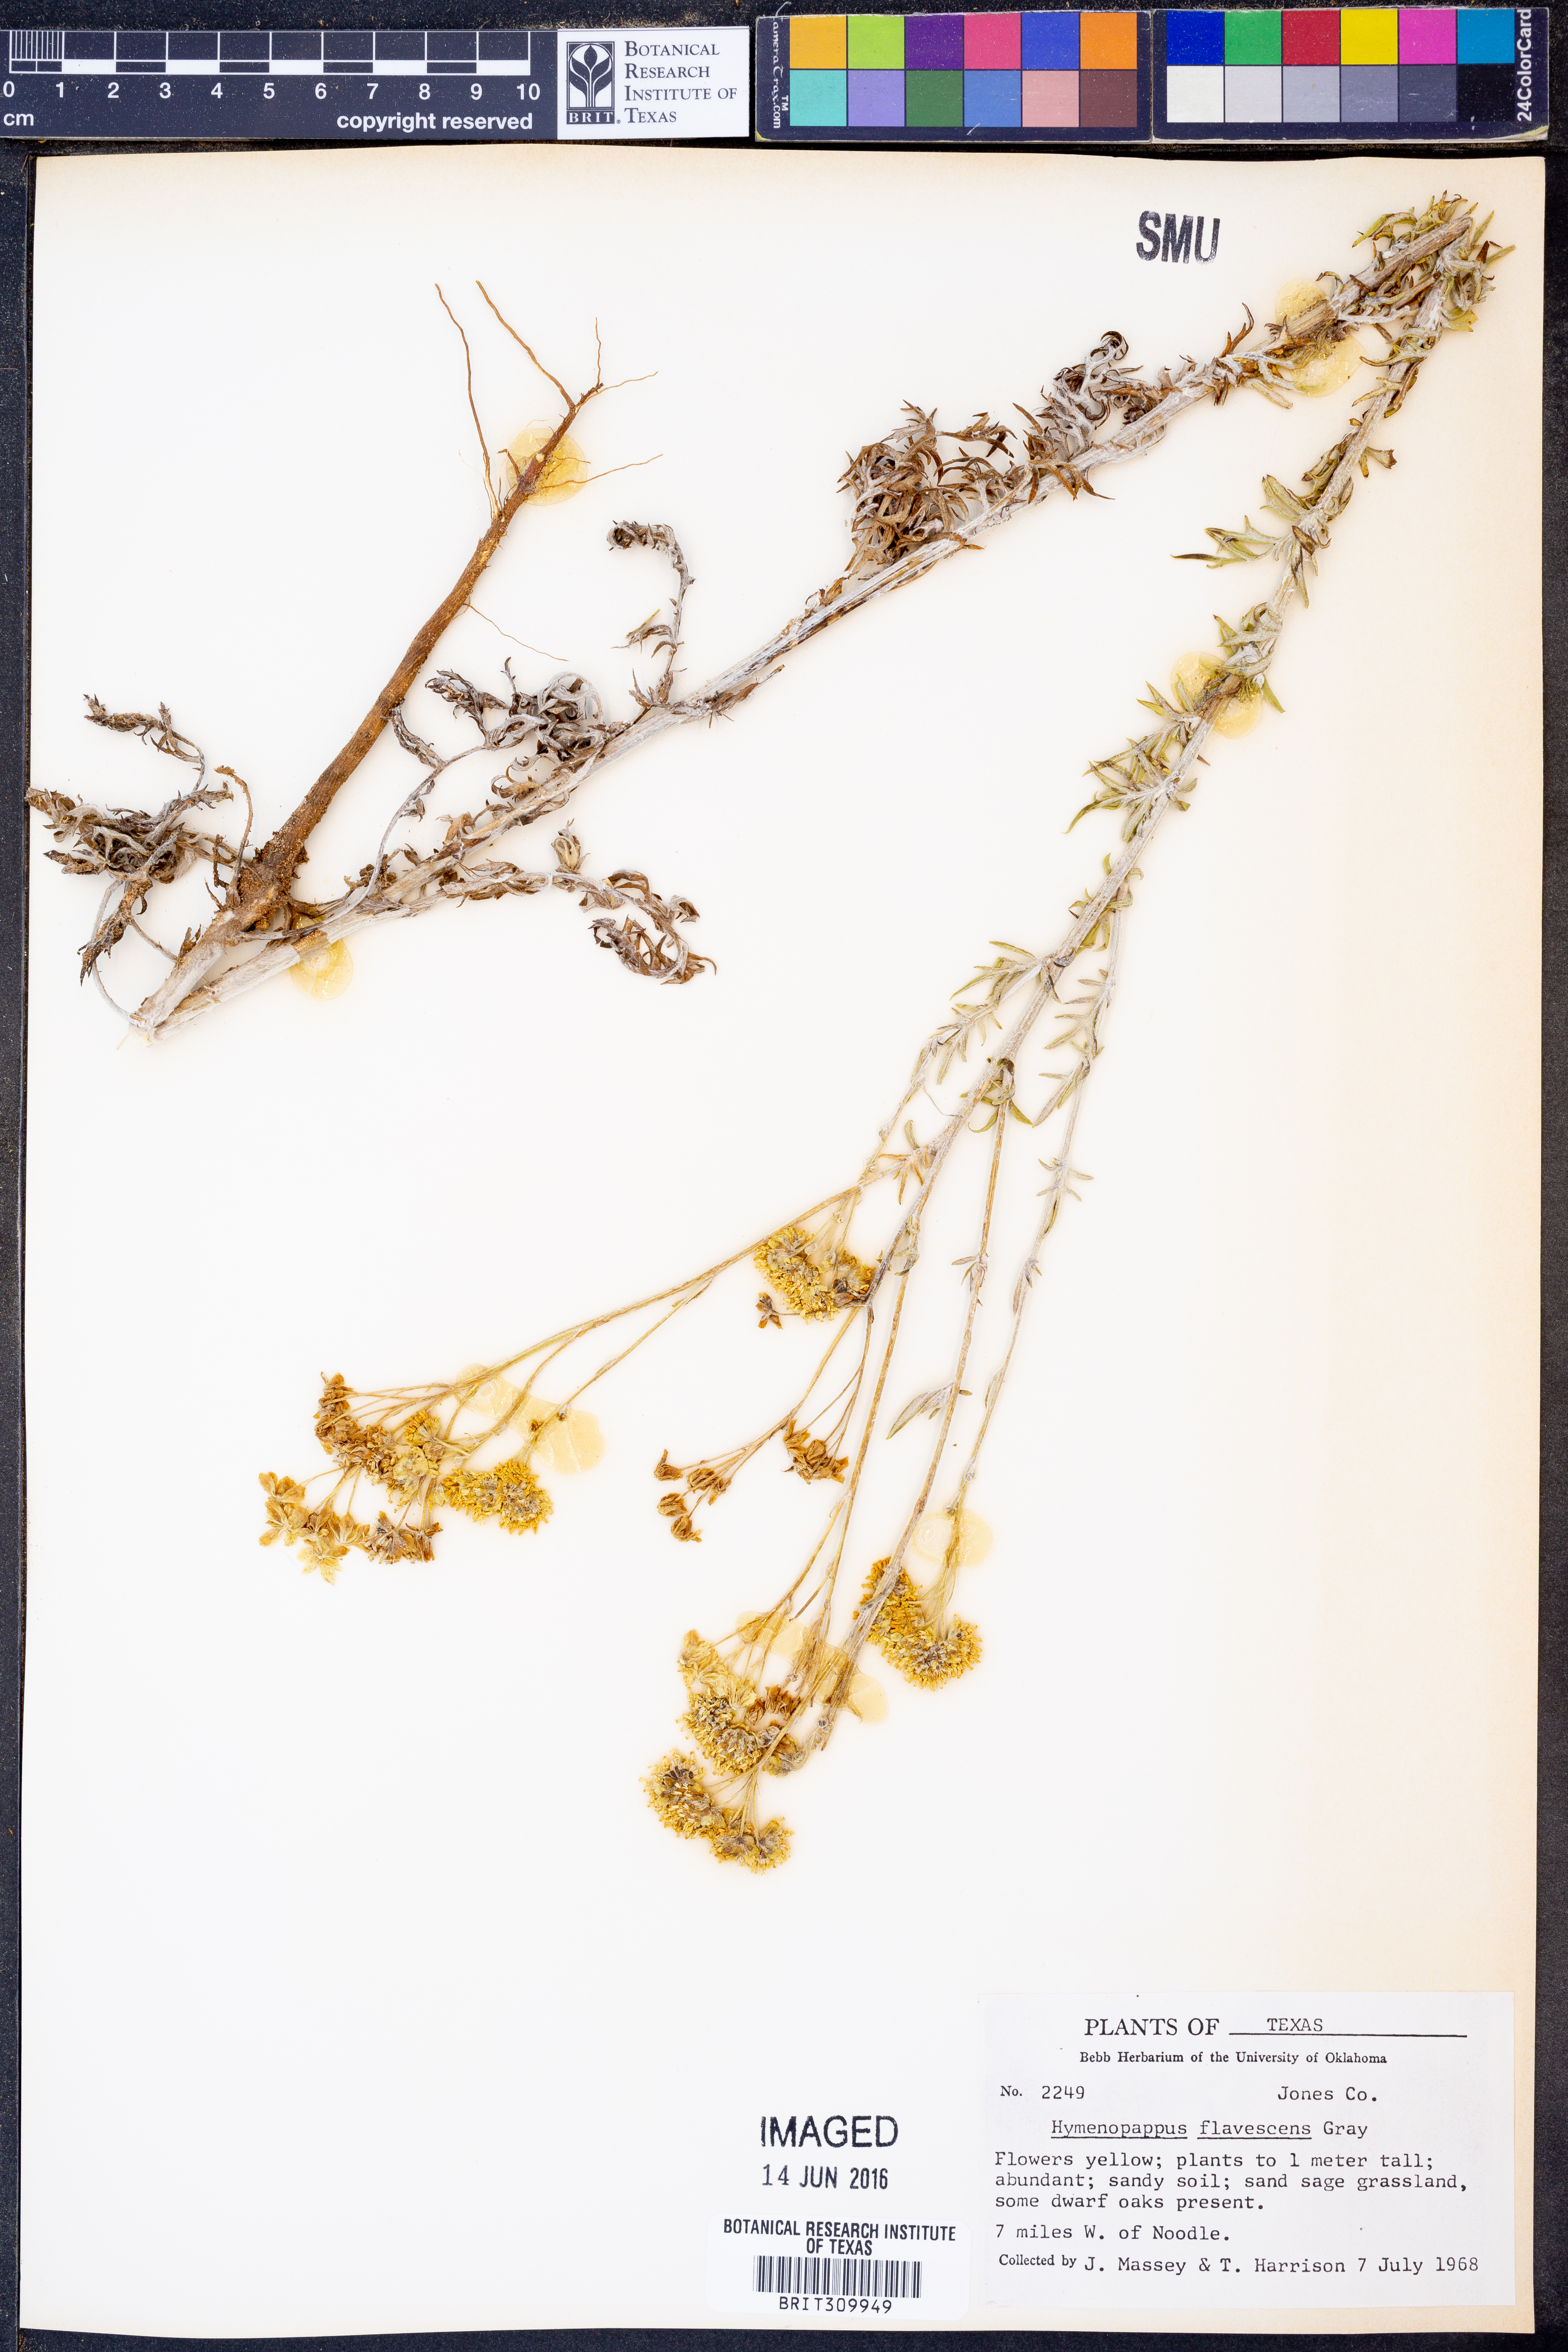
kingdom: Plantae
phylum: Tracheophyta
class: Magnoliopsida
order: Asterales
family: Asteraceae
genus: Hymenopappus
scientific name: Hymenopappus flavescens
